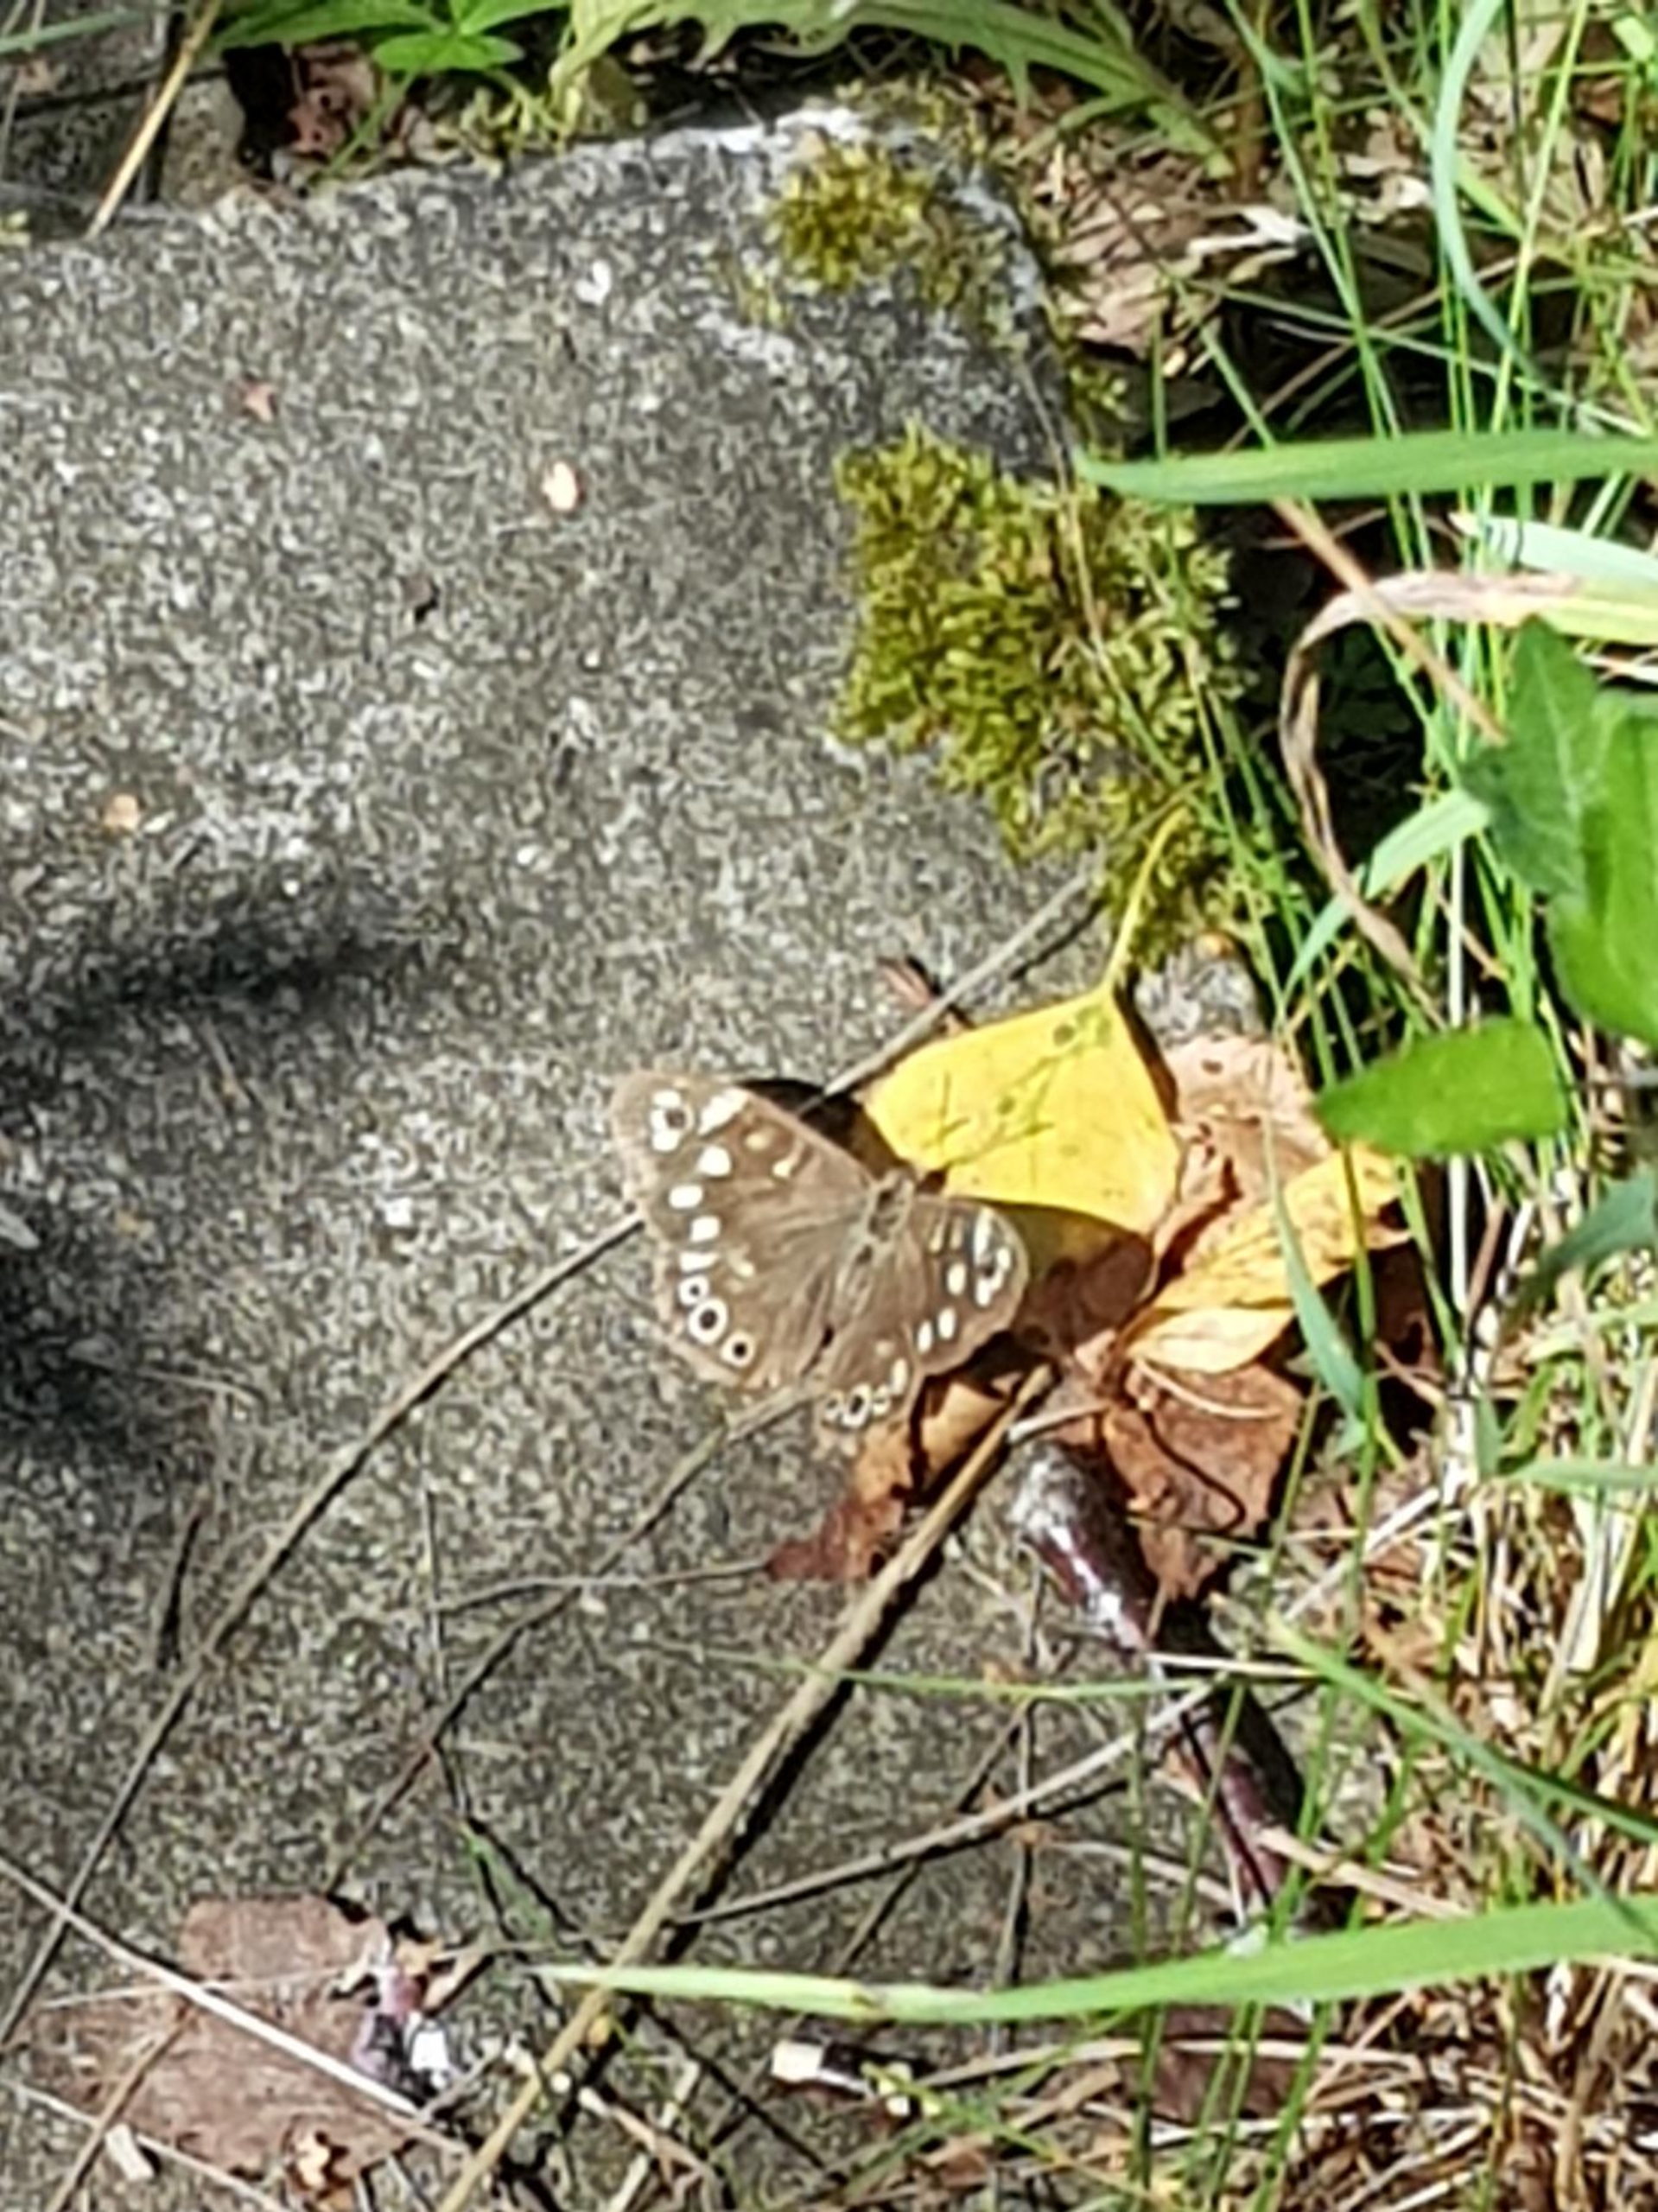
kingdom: Animalia
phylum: Arthropoda
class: Insecta
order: Lepidoptera
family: Nymphalidae
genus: Pararge
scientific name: Pararge aegeria
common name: Skovrandøje
